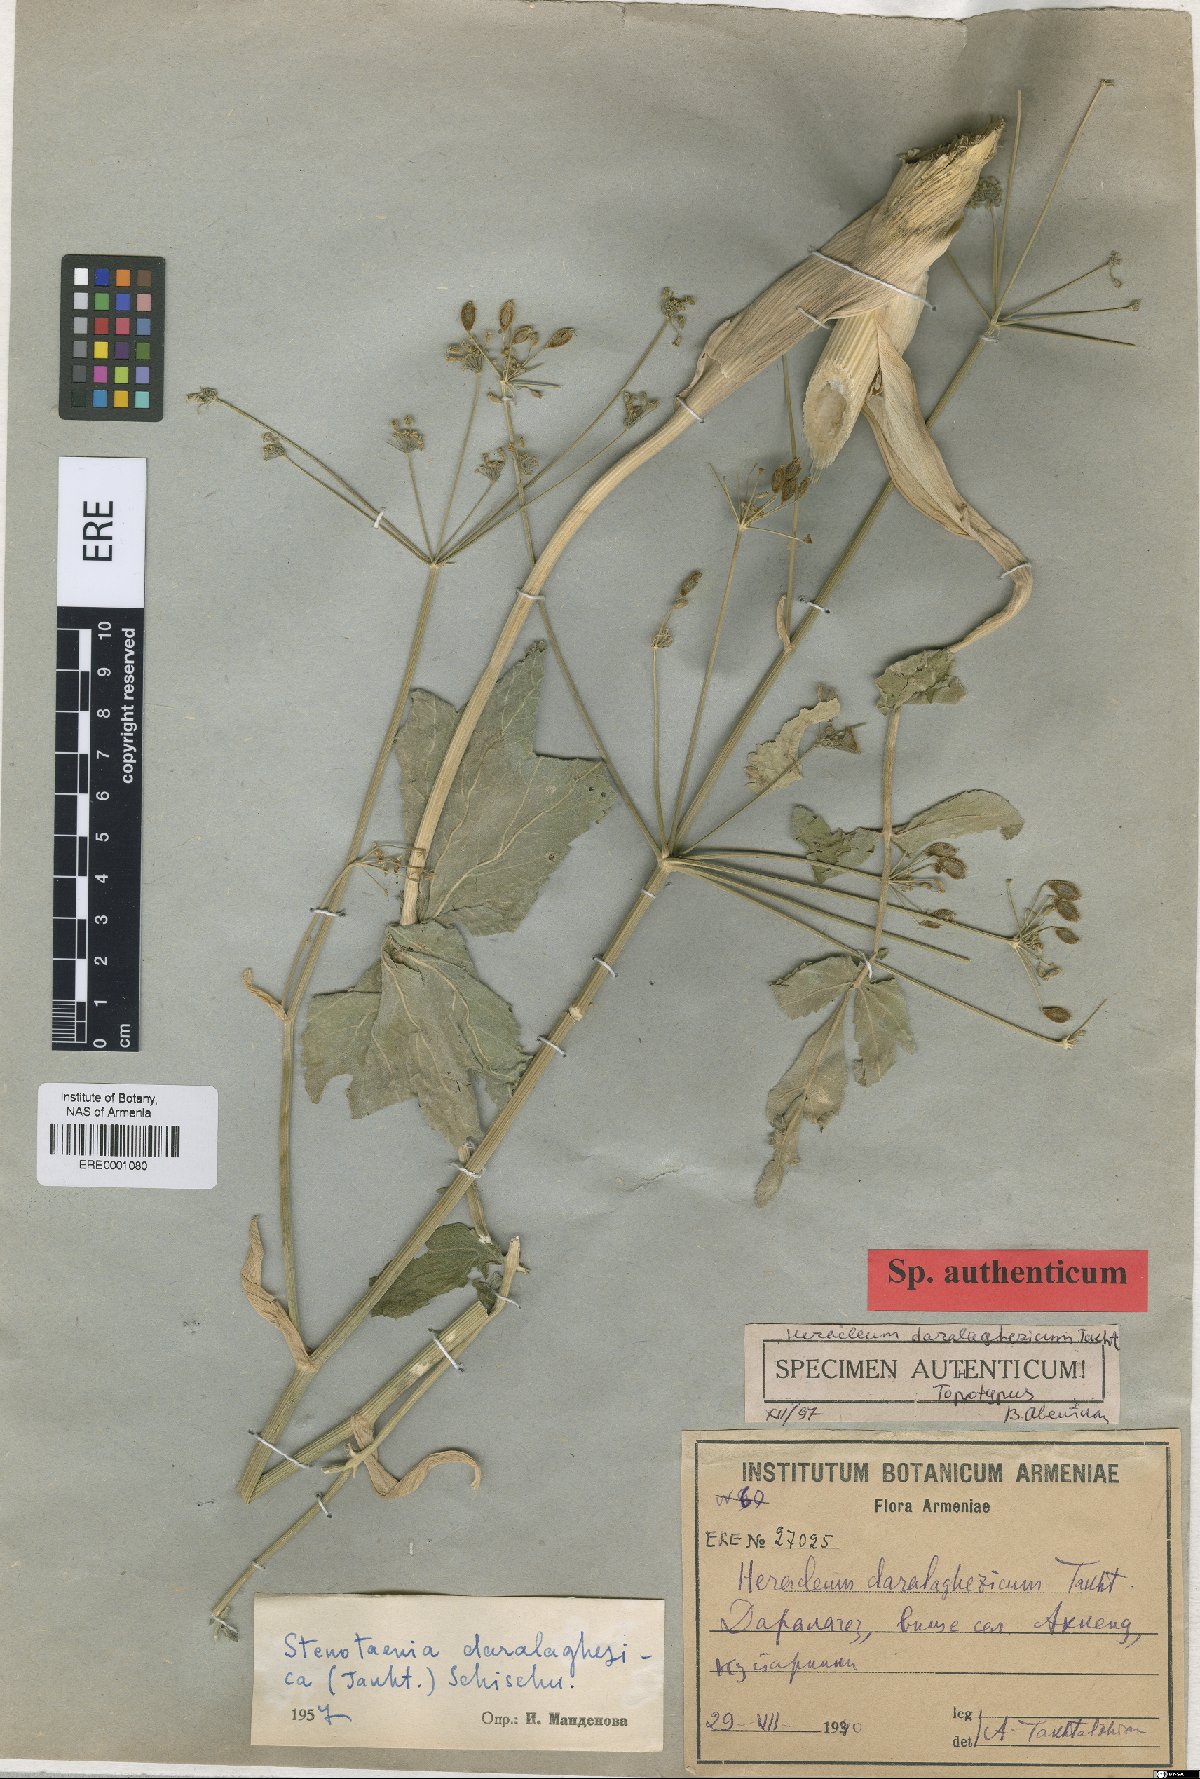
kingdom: Plantae
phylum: Tracheophyta
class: Magnoliopsida
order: Apiales
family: Apiaceae
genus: Stenotaenia
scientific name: Stenotaenia daralaghezica
